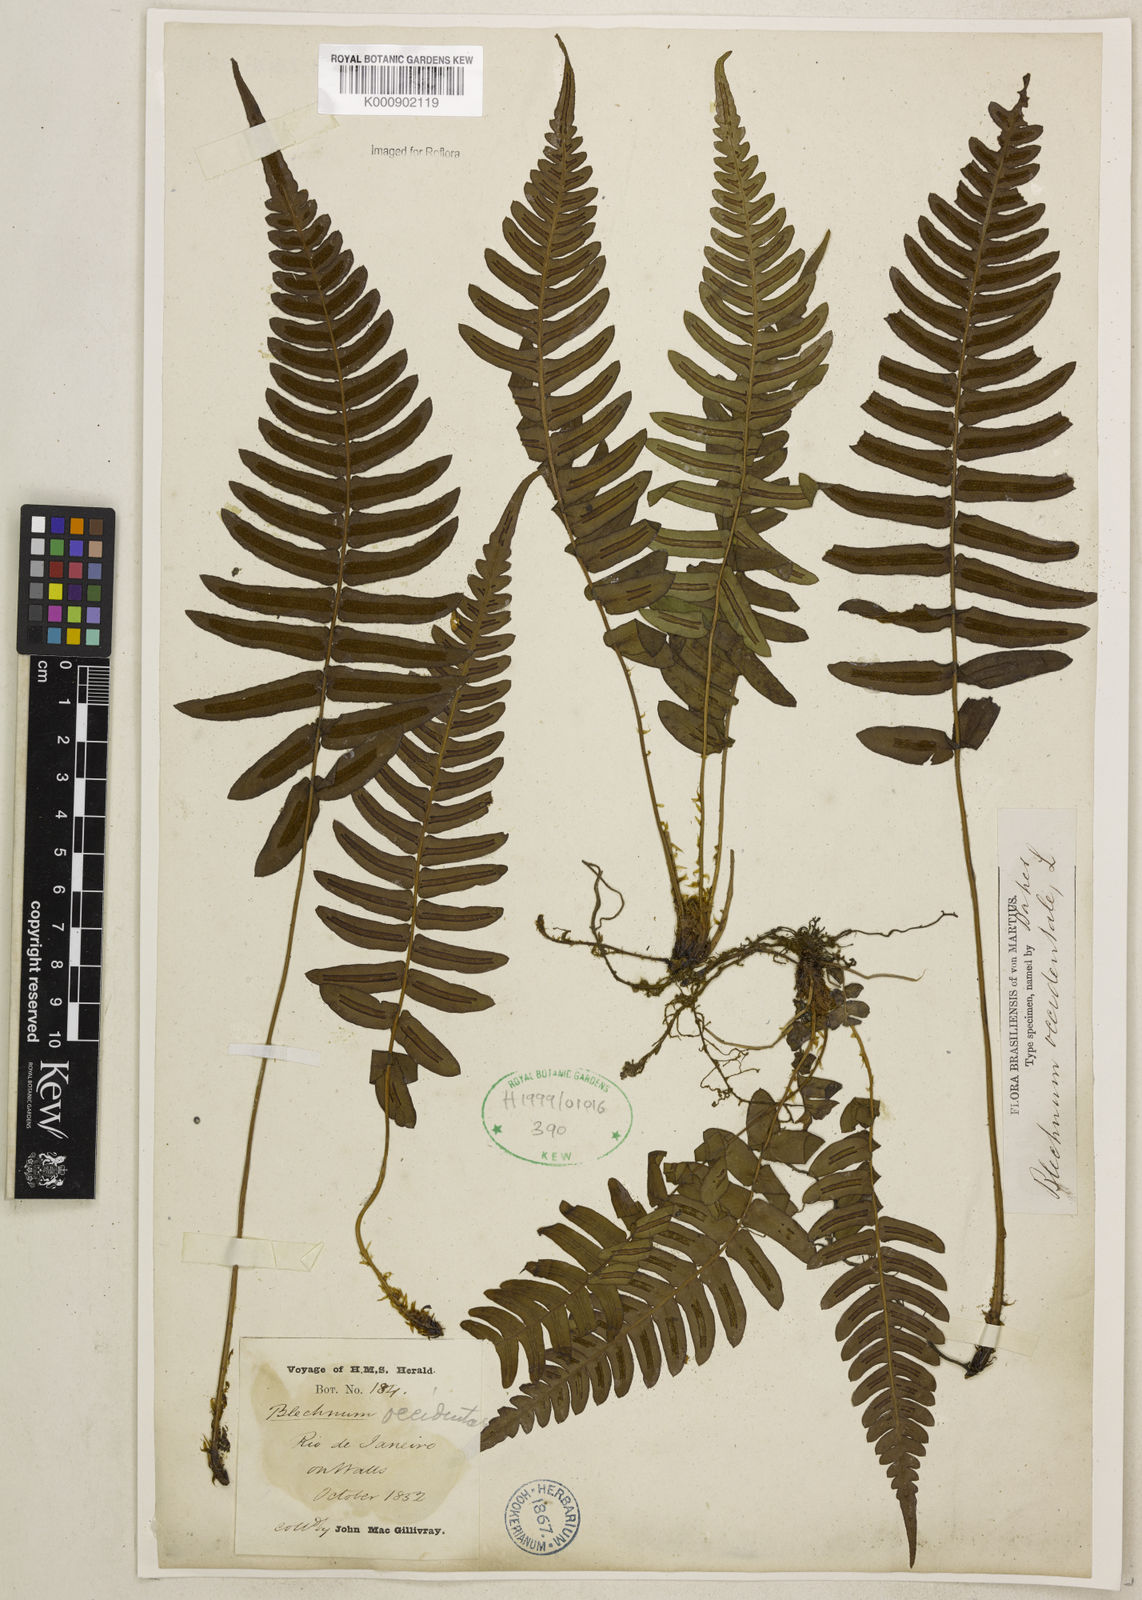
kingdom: Plantae
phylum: Tracheophyta
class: Polypodiopsida
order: Polypodiales
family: Blechnaceae
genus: Blechnum
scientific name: Blechnum occidentale
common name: Hammock fern
